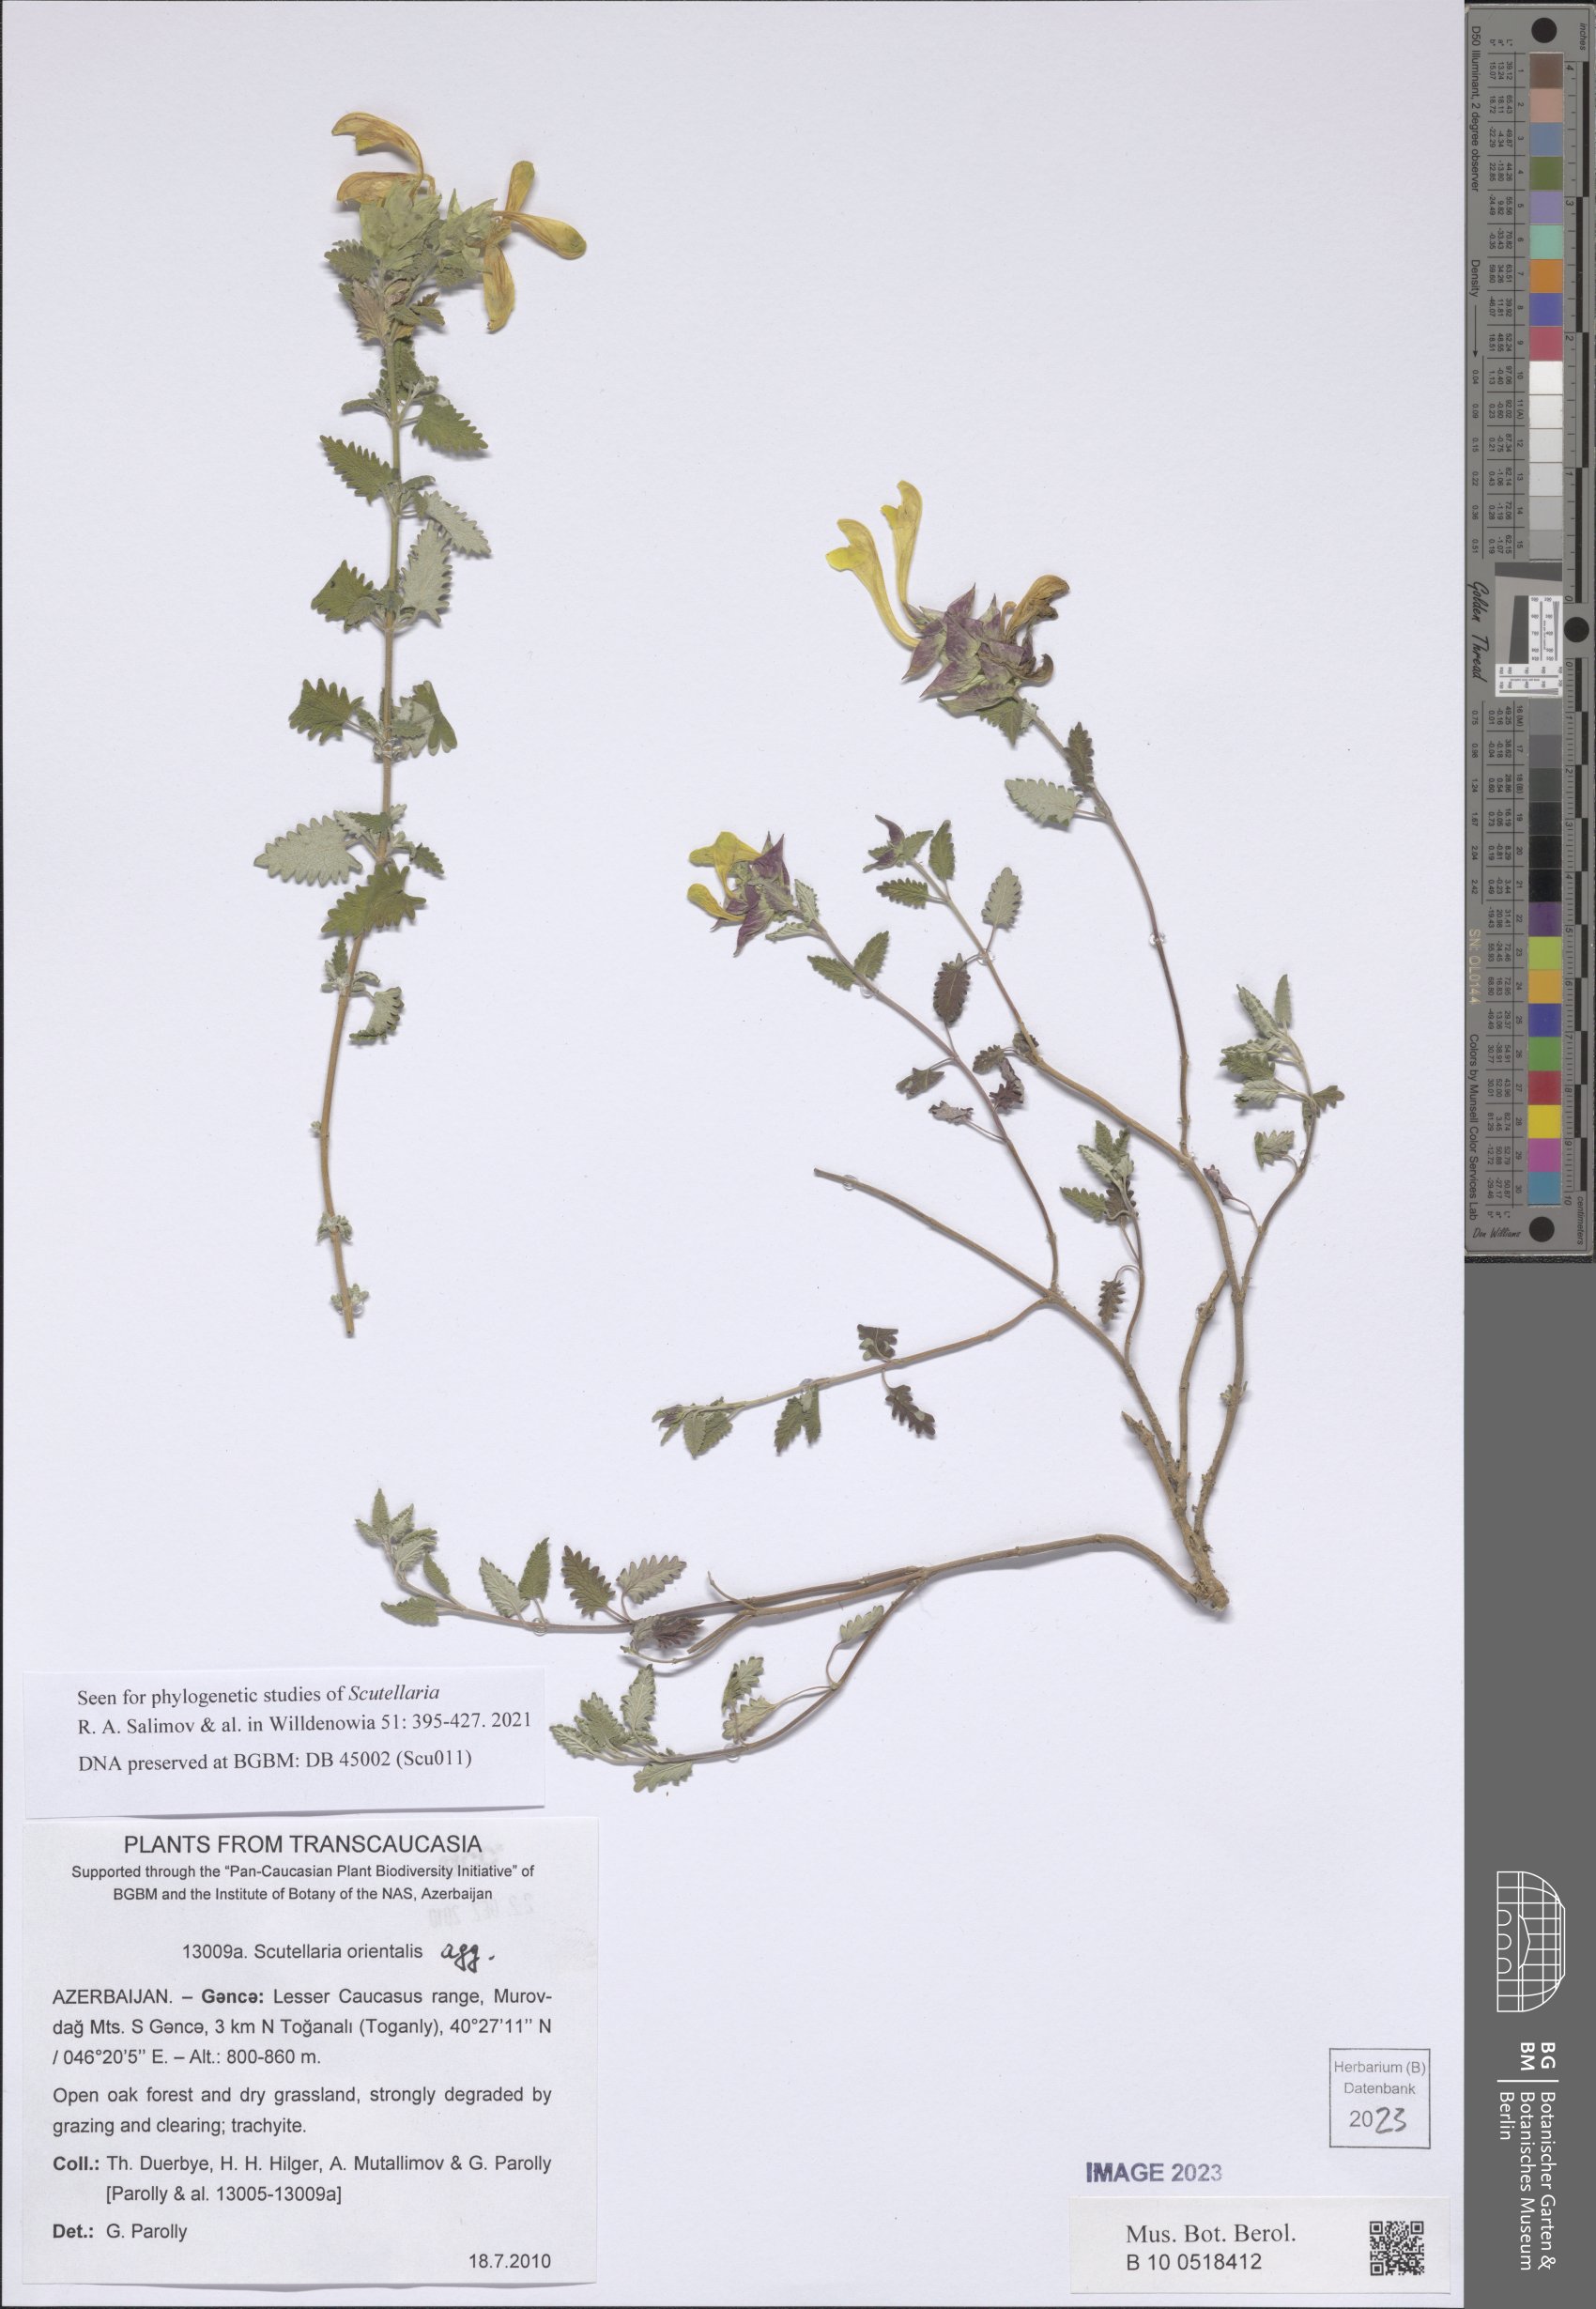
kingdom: Plantae
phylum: Tracheophyta
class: Magnoliopsida
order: Lamiales
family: Lamiaceae
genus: Scutellaria
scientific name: Scutellaria orientalis
